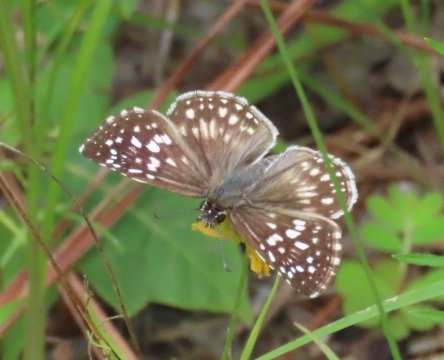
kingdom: Animalia
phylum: Arthropoda
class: Insecta
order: Lepidoptera
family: Hesperiidae
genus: Pyrgus
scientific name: Pyrgus oileus
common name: Tropical Checkered-Skipper
